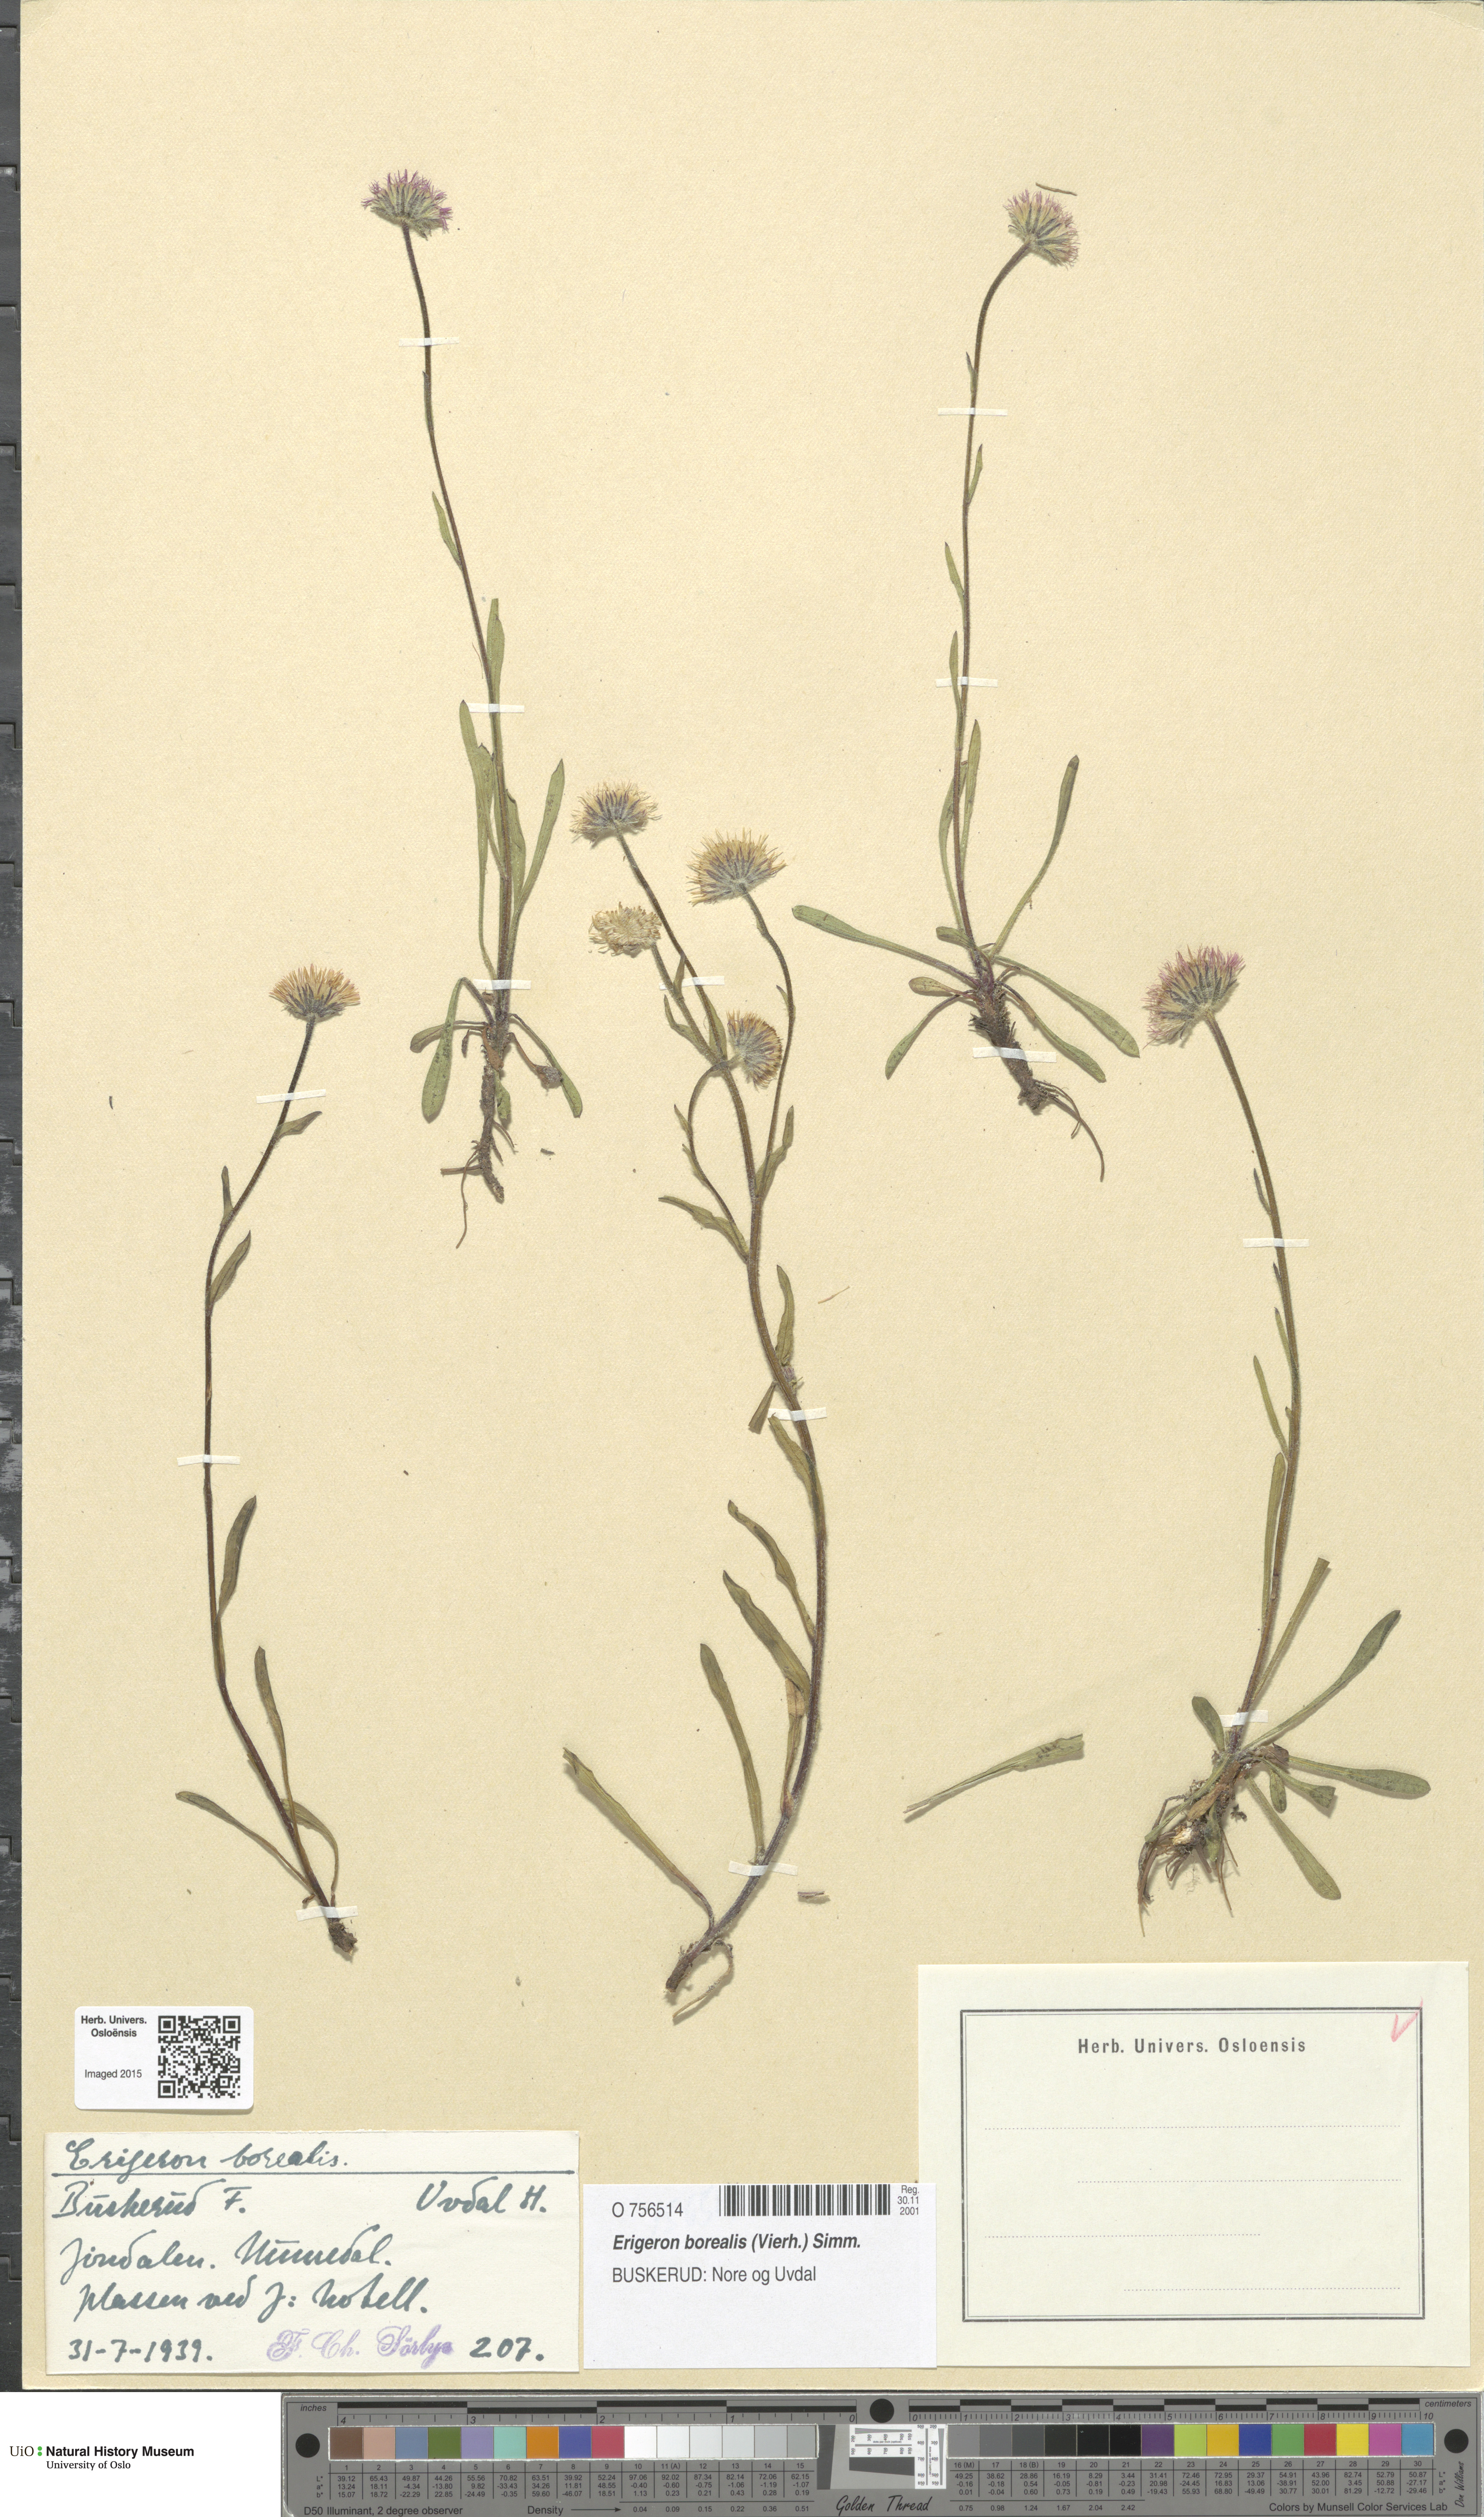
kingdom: Plantae
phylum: Tracheophyta
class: Magnoliopsida
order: Asterales
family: Asteraceae
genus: Erigeron
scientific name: Erigeron borealis
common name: Alpine fleabane
